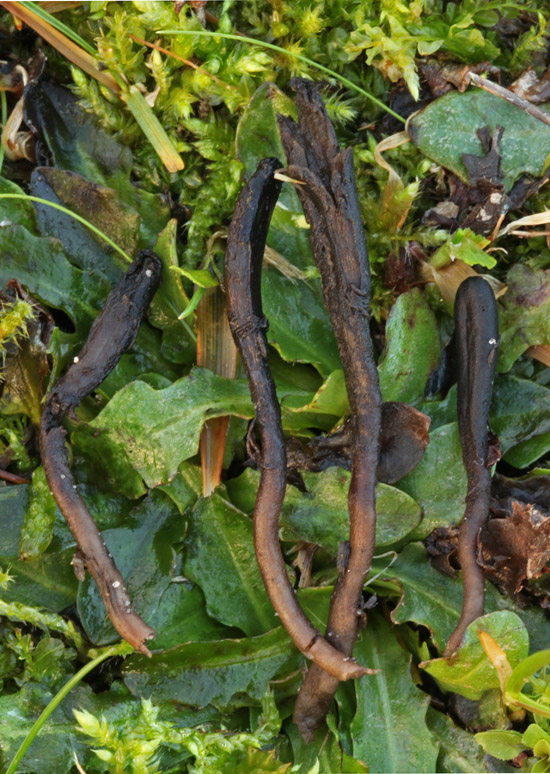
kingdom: Fungi
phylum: Ascomycota
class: Geoglossomycetes
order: Geoglossales
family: Geoglossaceae
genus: Hemileucoglossum
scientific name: Hemileucoglossum elongatum
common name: småsporet jordtunge
